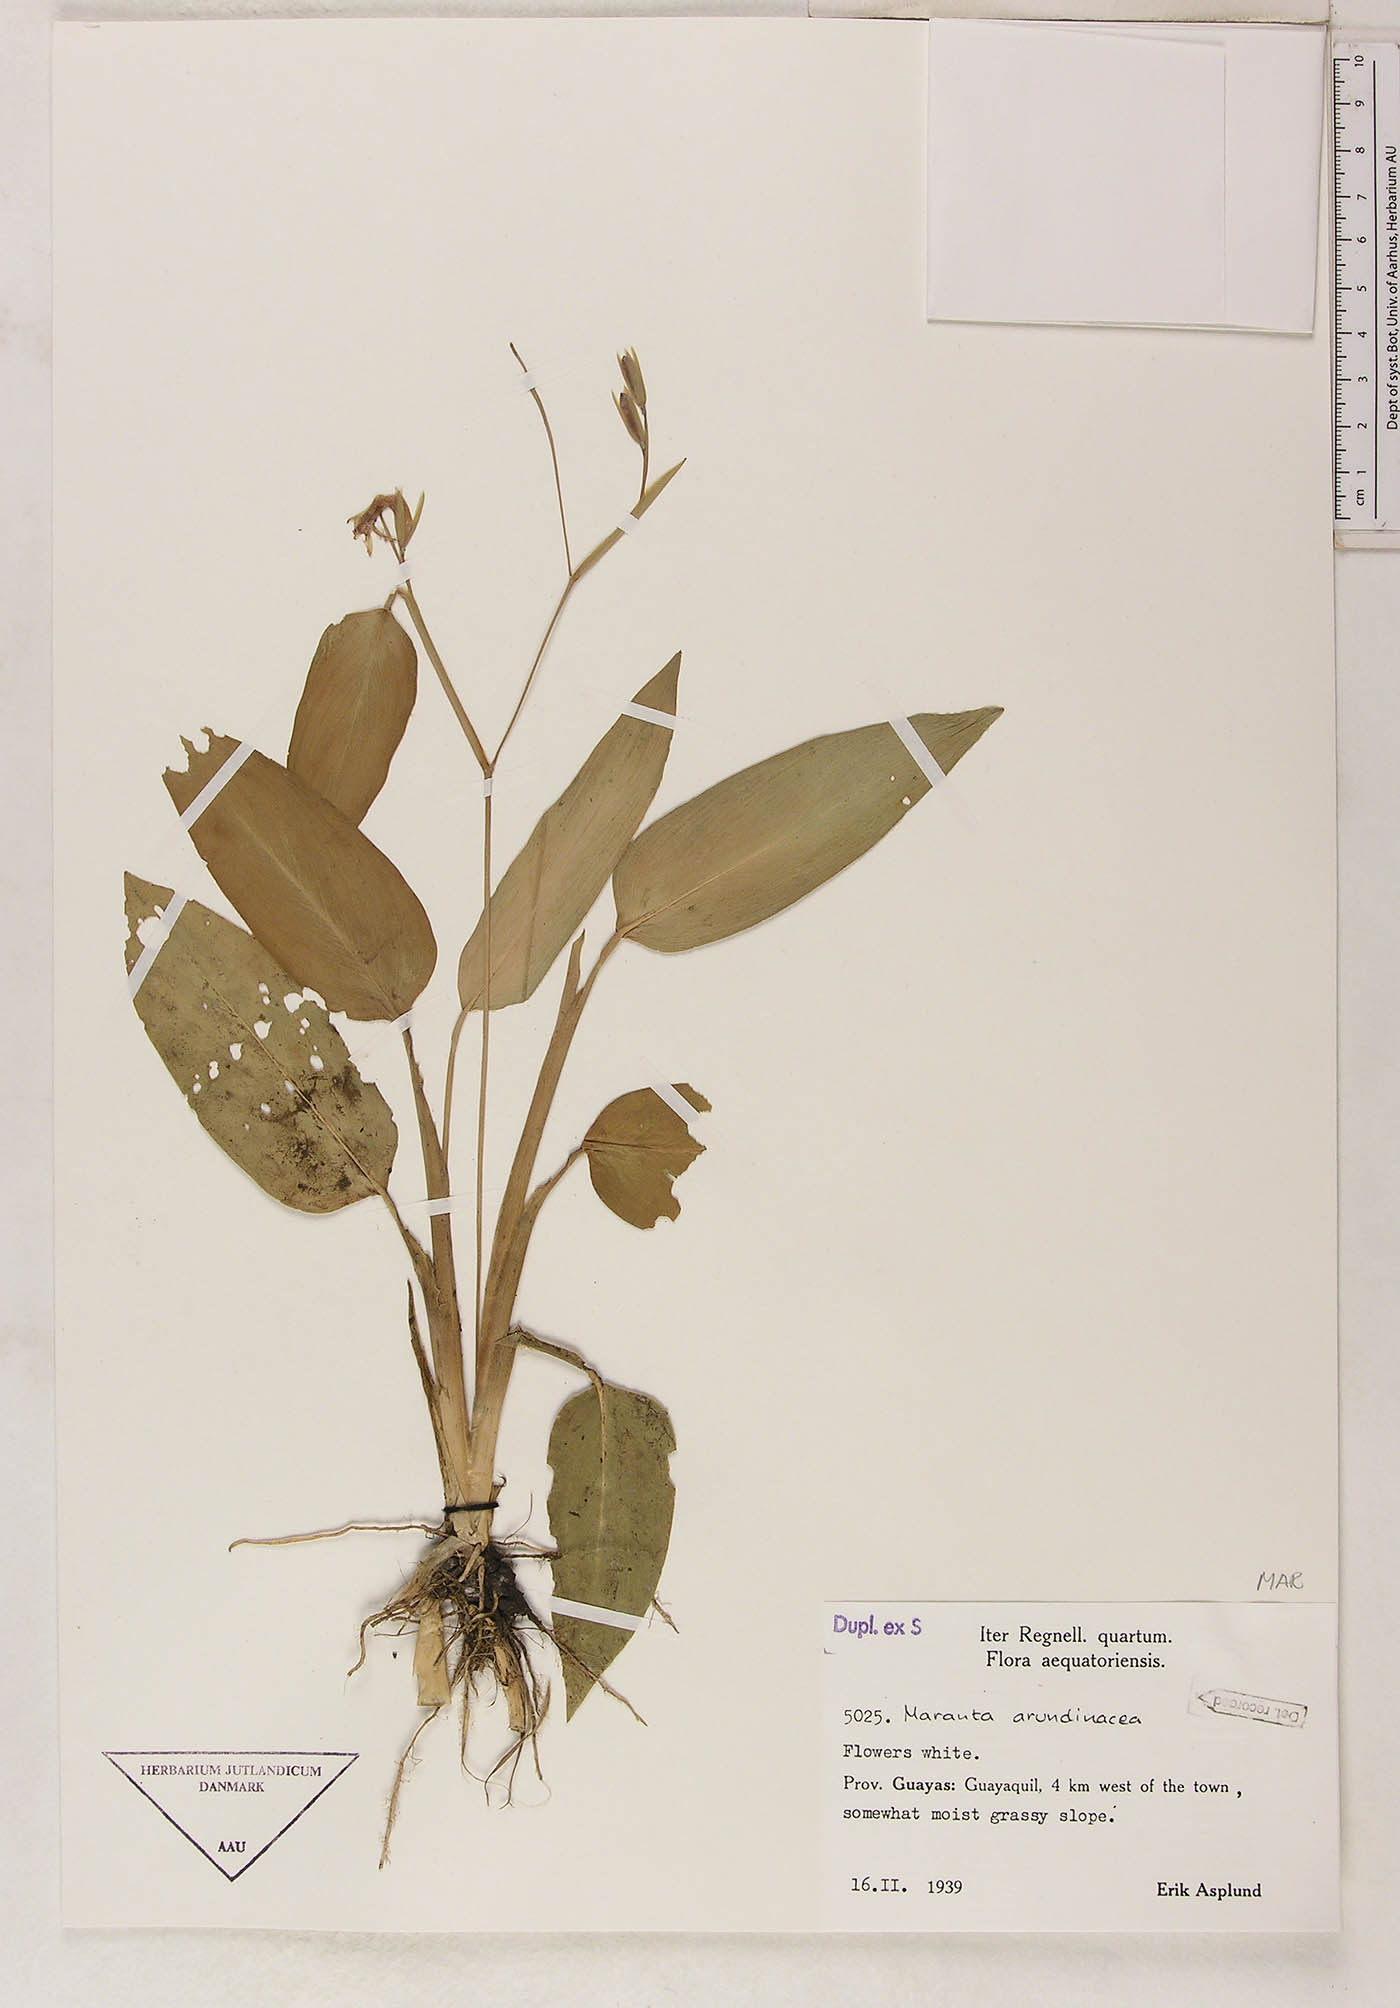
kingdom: Plantae
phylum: Tracheophyta
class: Liliopsida
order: Zingiberales
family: Marantaceae
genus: Maranta
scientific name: Maranta arundinacea
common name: Arrowroot
